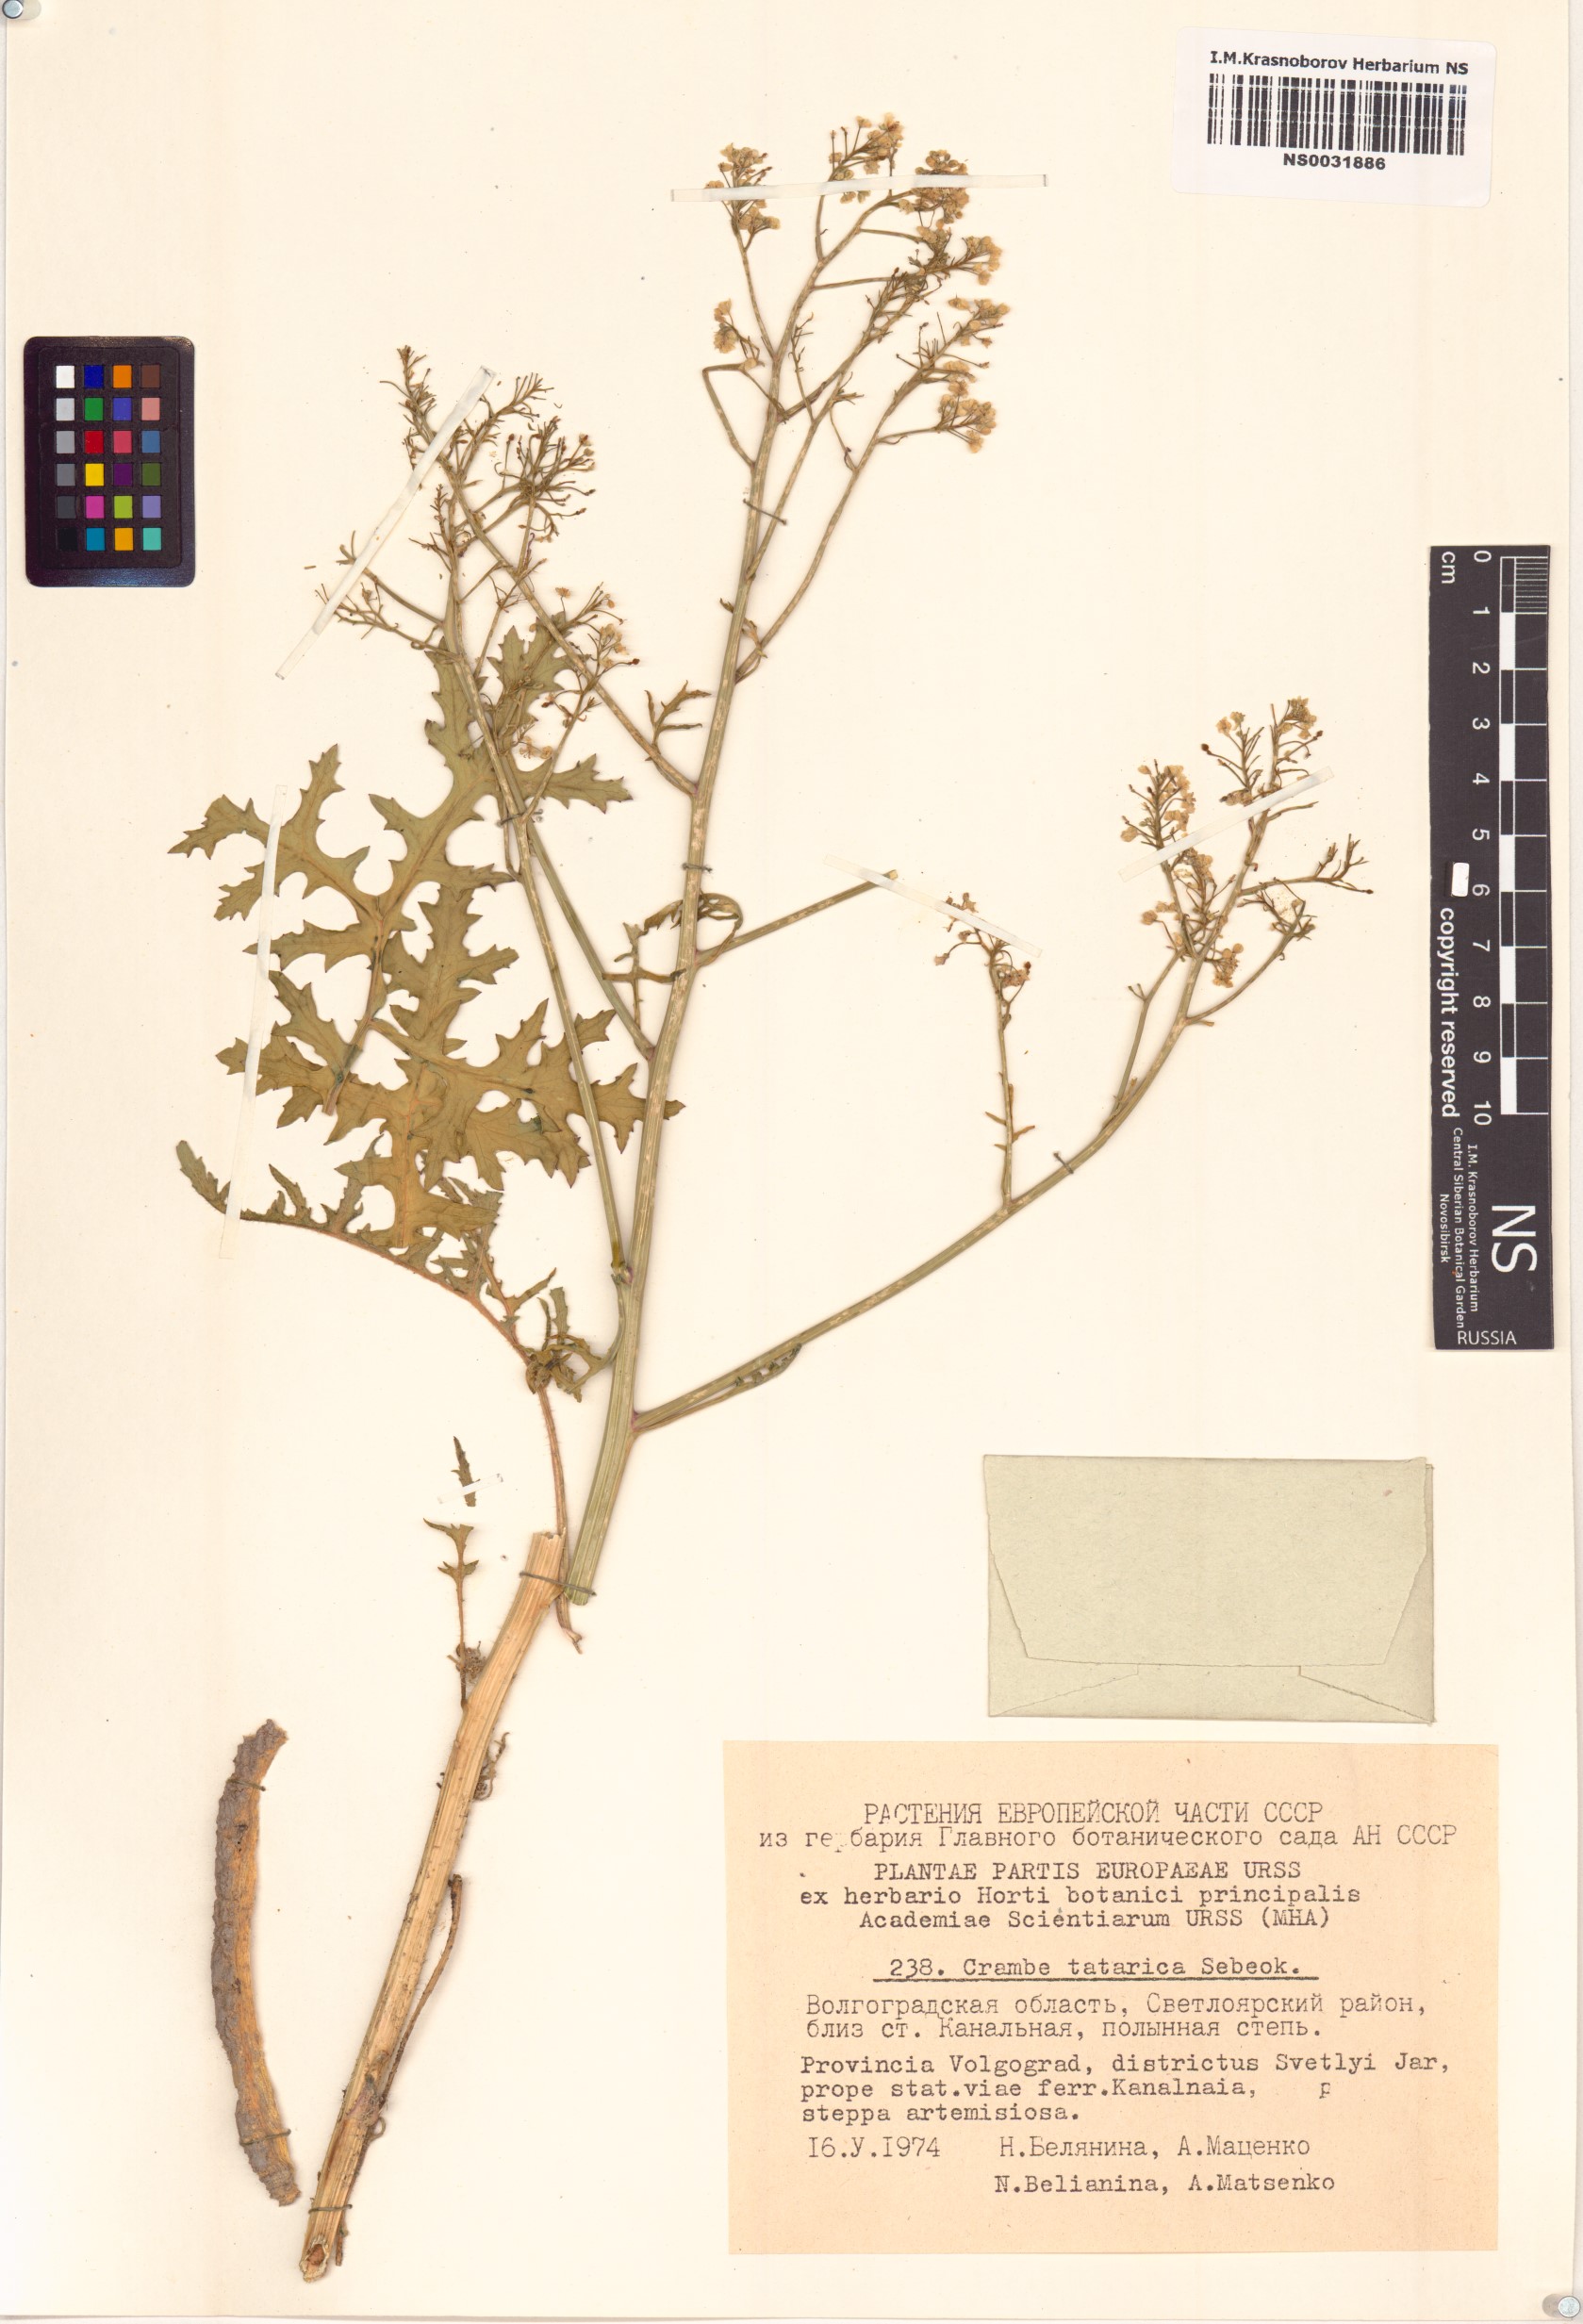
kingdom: Plantae
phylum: Tracheophyta
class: Magnoliopsida
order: Brassicales
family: Brassicaceae
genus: Crambe
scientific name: Crambe tataria
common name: Tartarian breadplant
